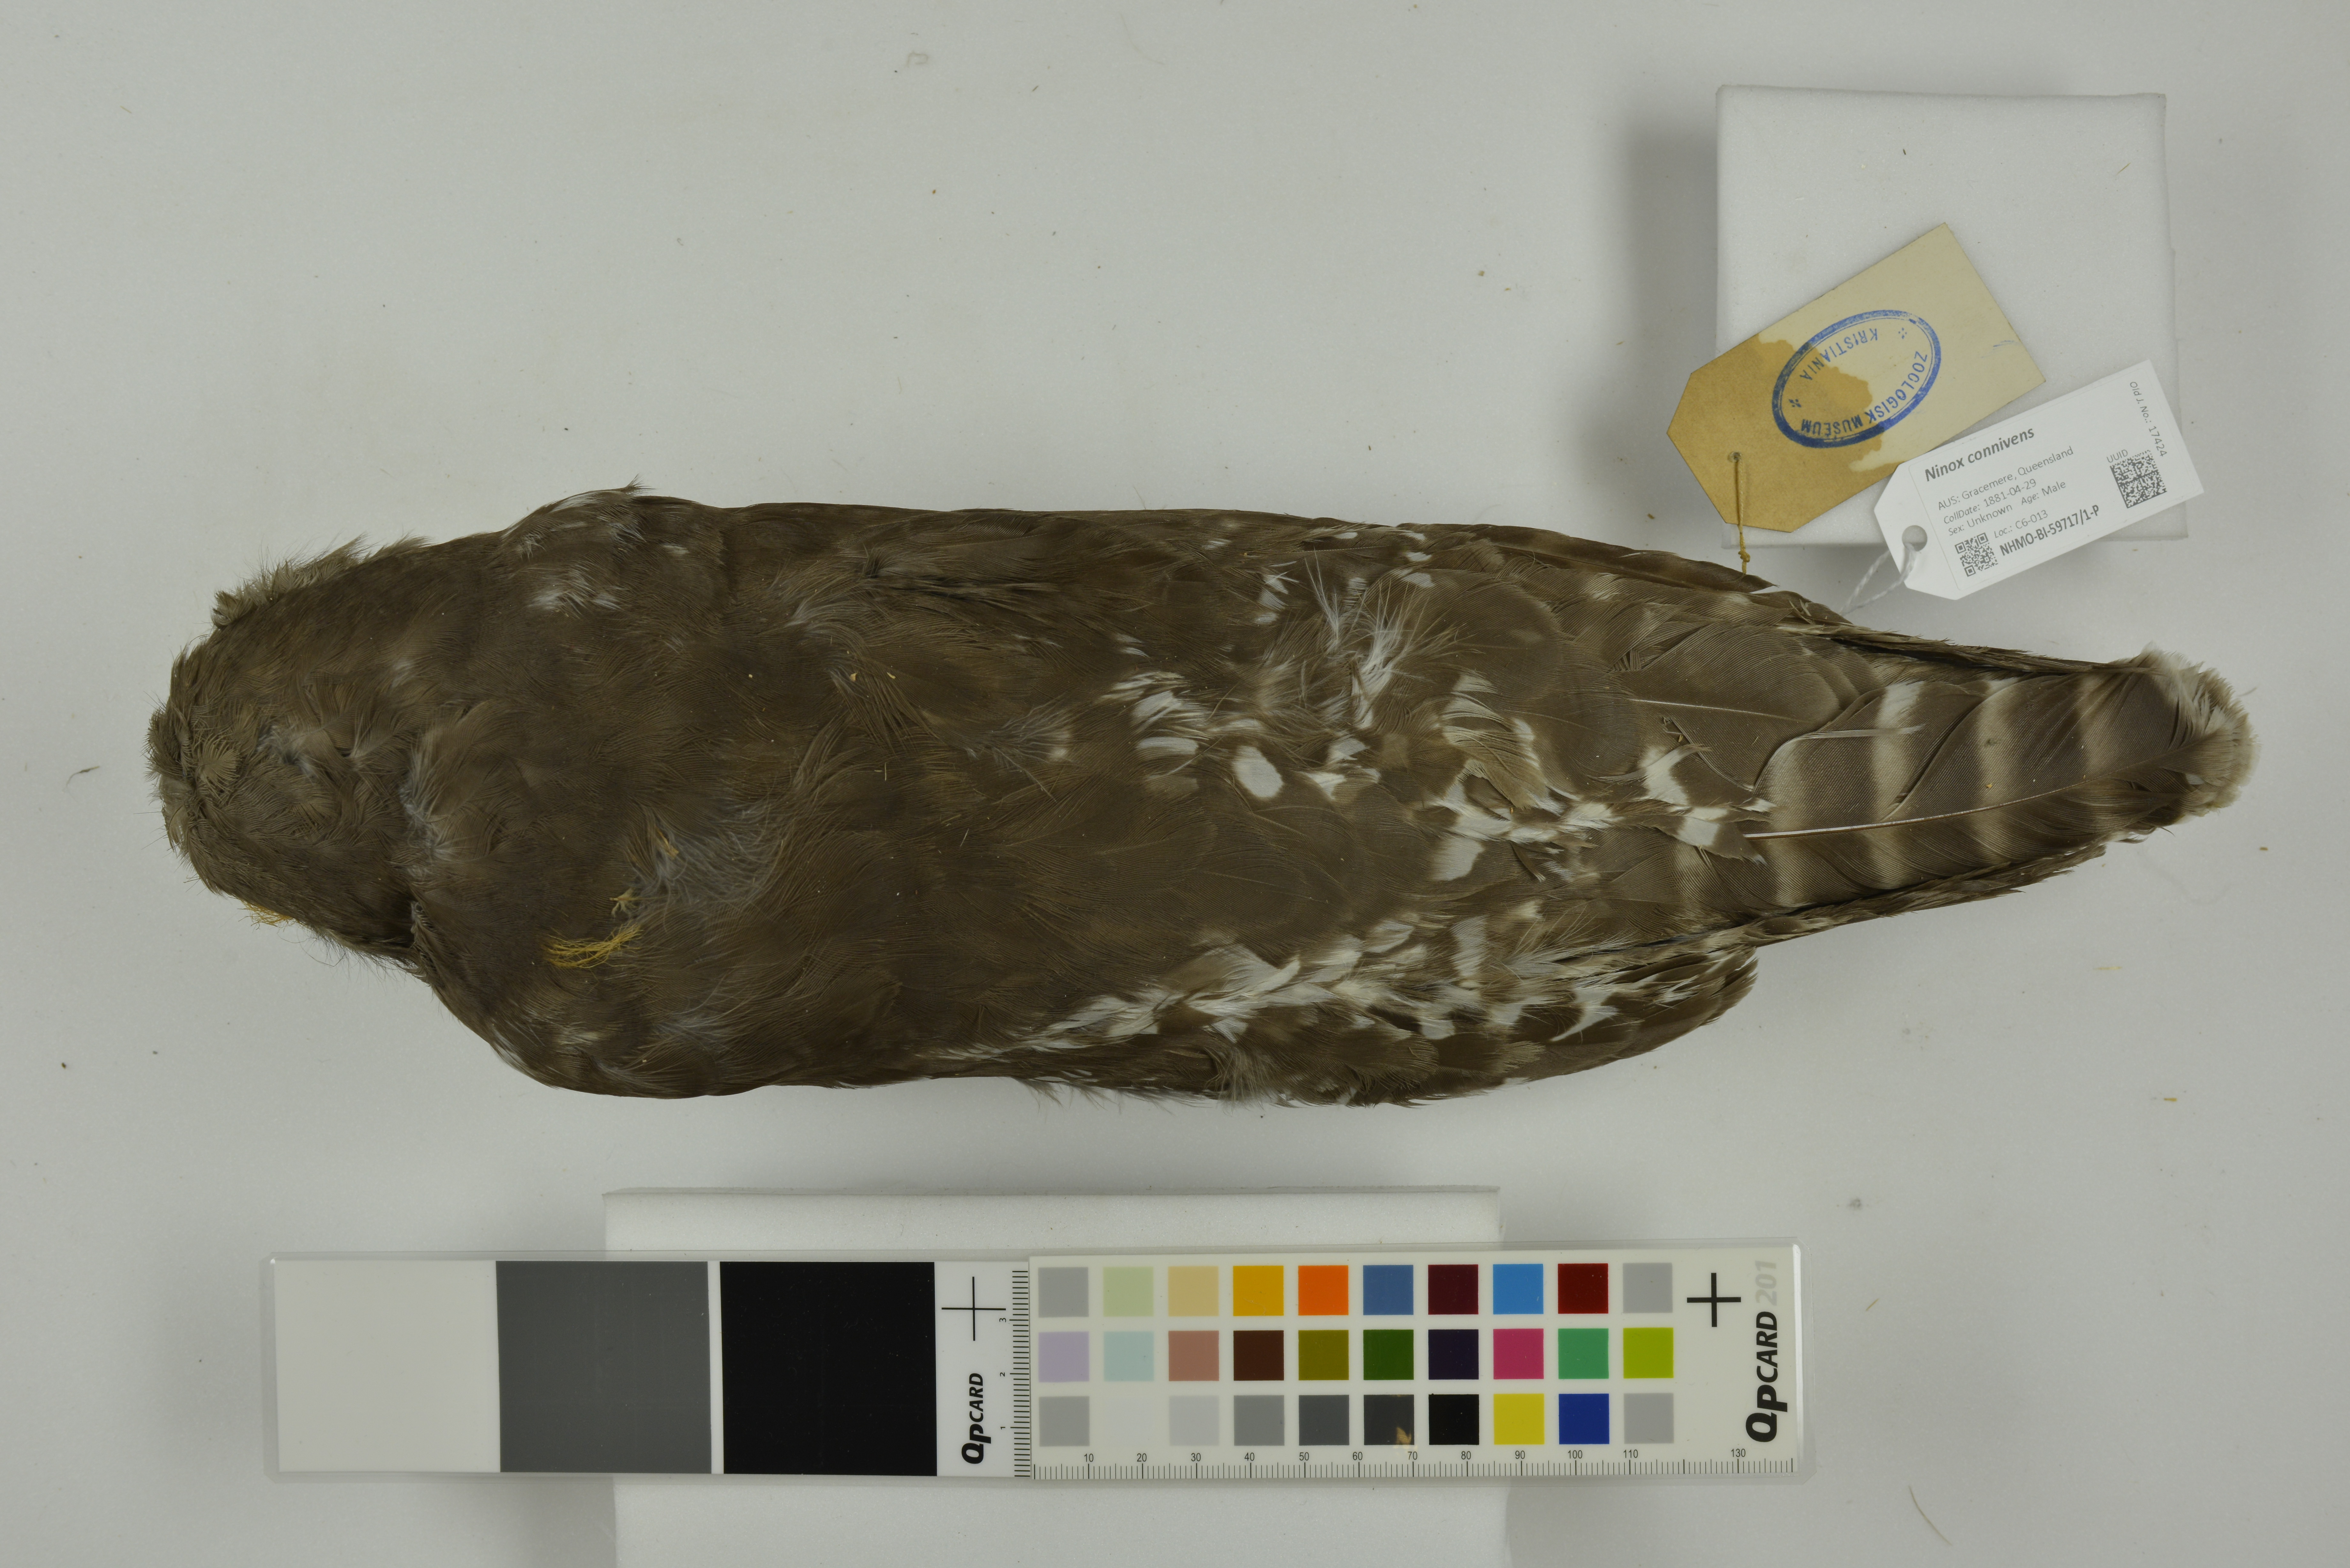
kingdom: Animalia
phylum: Chordata
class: Aves
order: Strigiformes
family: Strigidae
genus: Ninox
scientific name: Ninox connivens
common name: Barking owl
